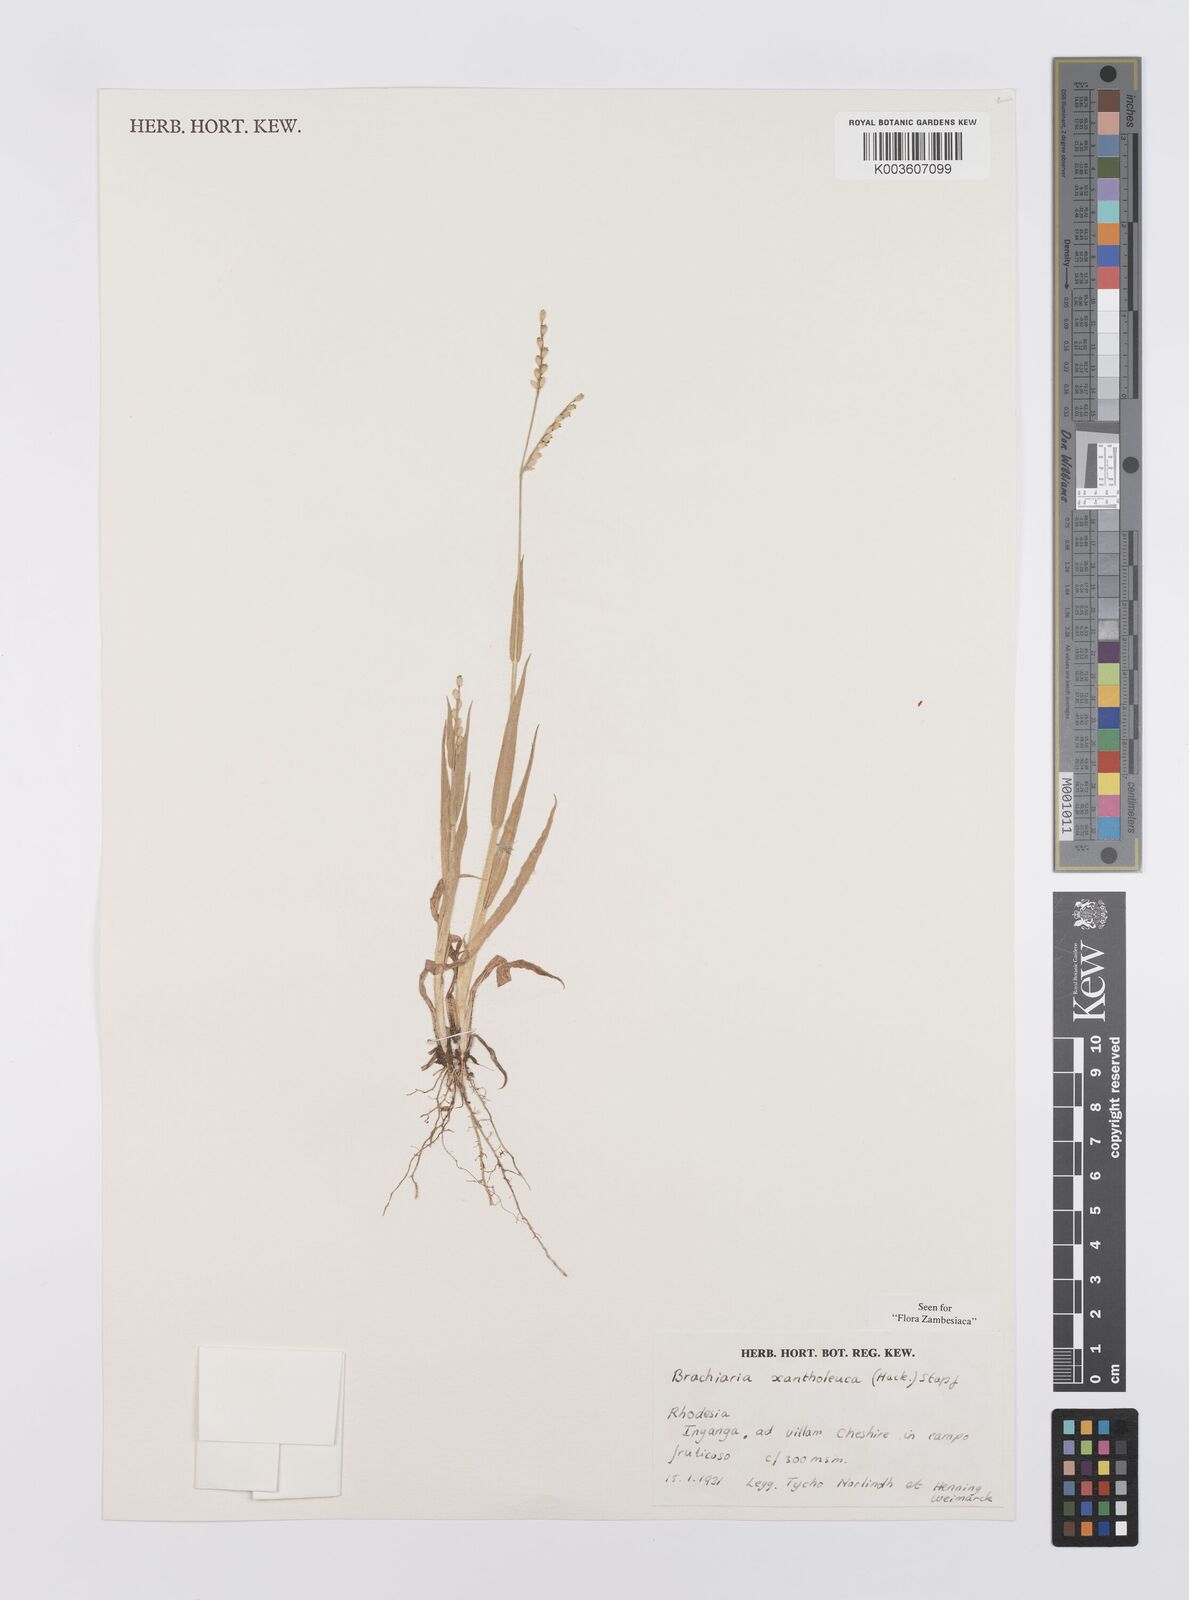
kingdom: Plantae
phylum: Tracheophyta
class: Liliopsida
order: Poales
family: Poaceae
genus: Urochloa
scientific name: Urochloa xantholeuca
